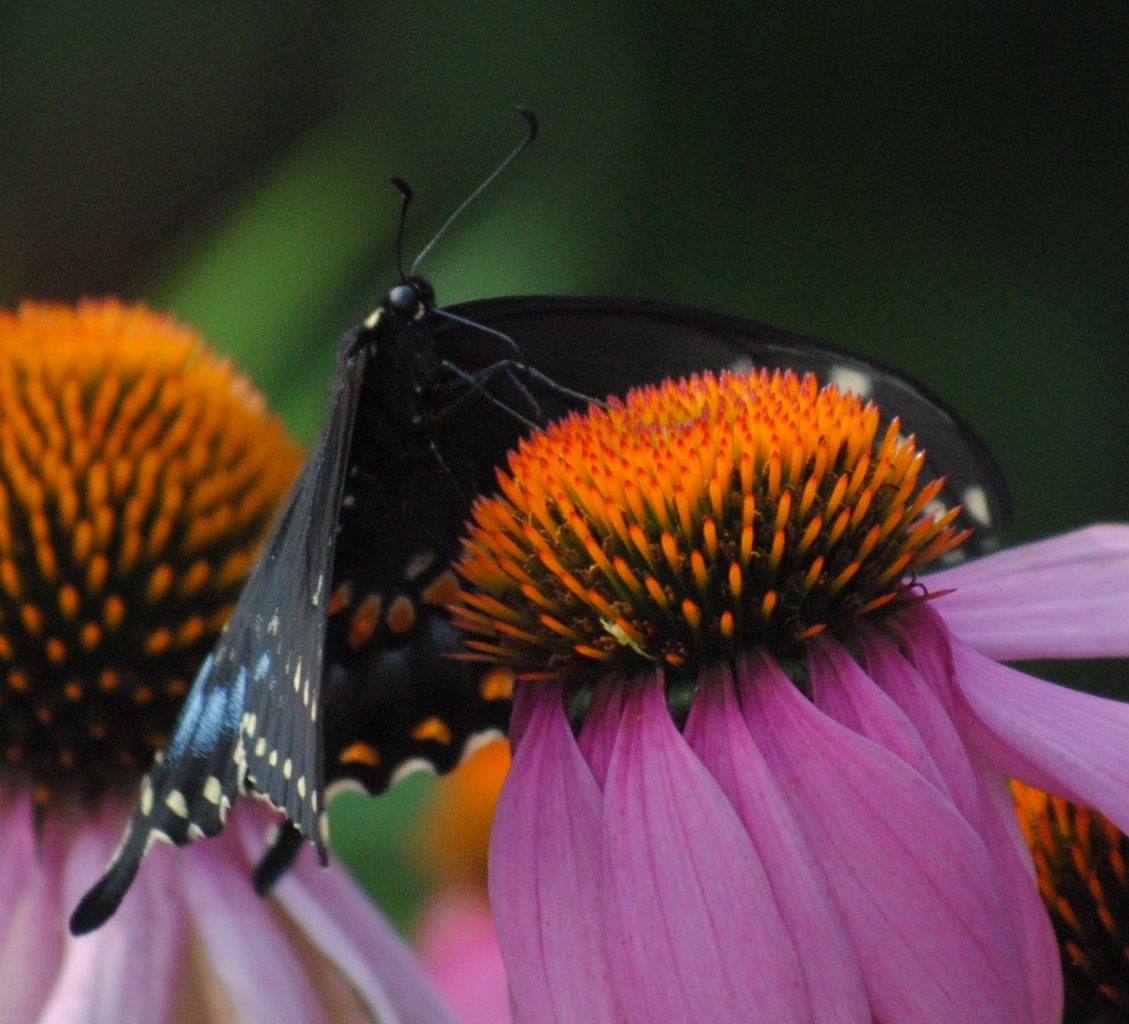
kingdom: Animalia
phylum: Arthropoda
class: Insecta
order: Lepidoptera
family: Papilionidae
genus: Papilio
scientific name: Papilio polyxenes
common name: Black Swallowtail
